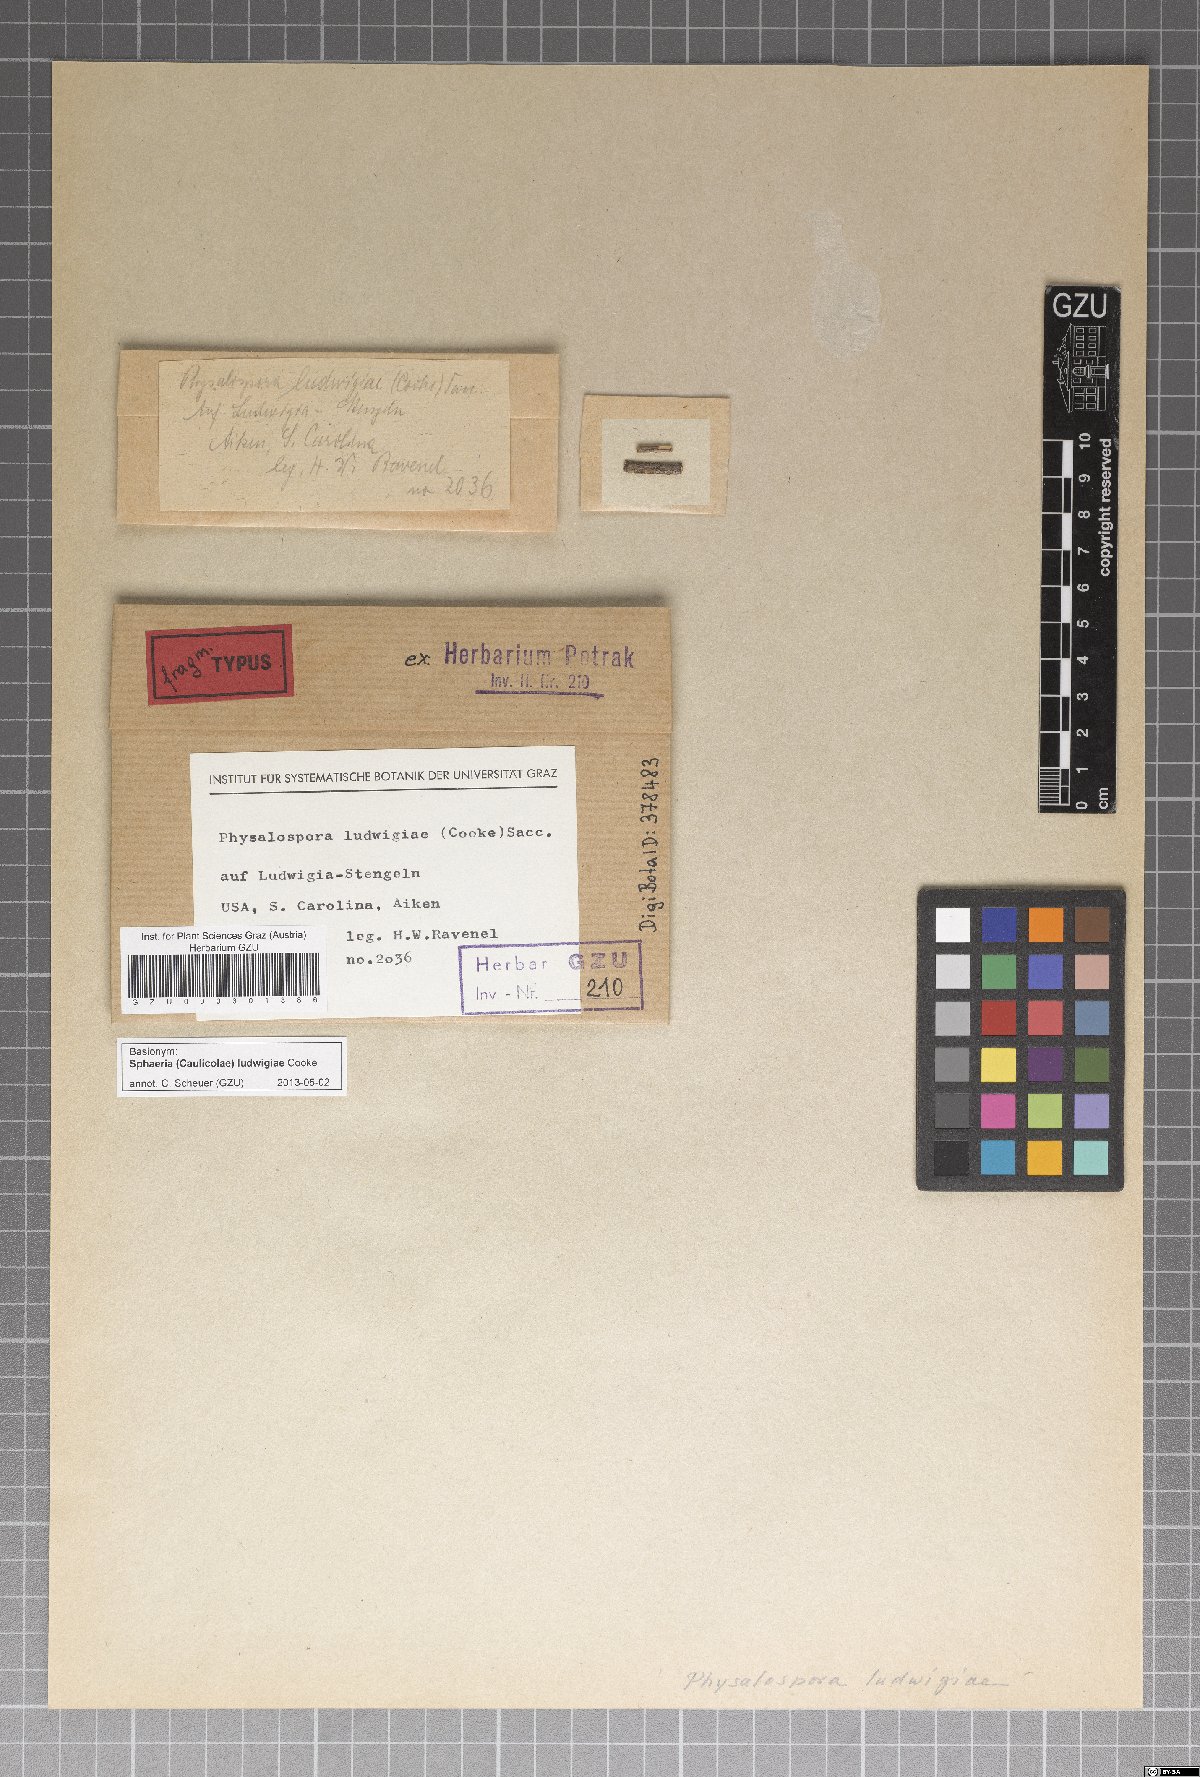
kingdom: Fungi
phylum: Ascomycota
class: Sordariomycetes
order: Xylariales
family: Xylariaceae
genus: Sphaeria
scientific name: Sphaeria
